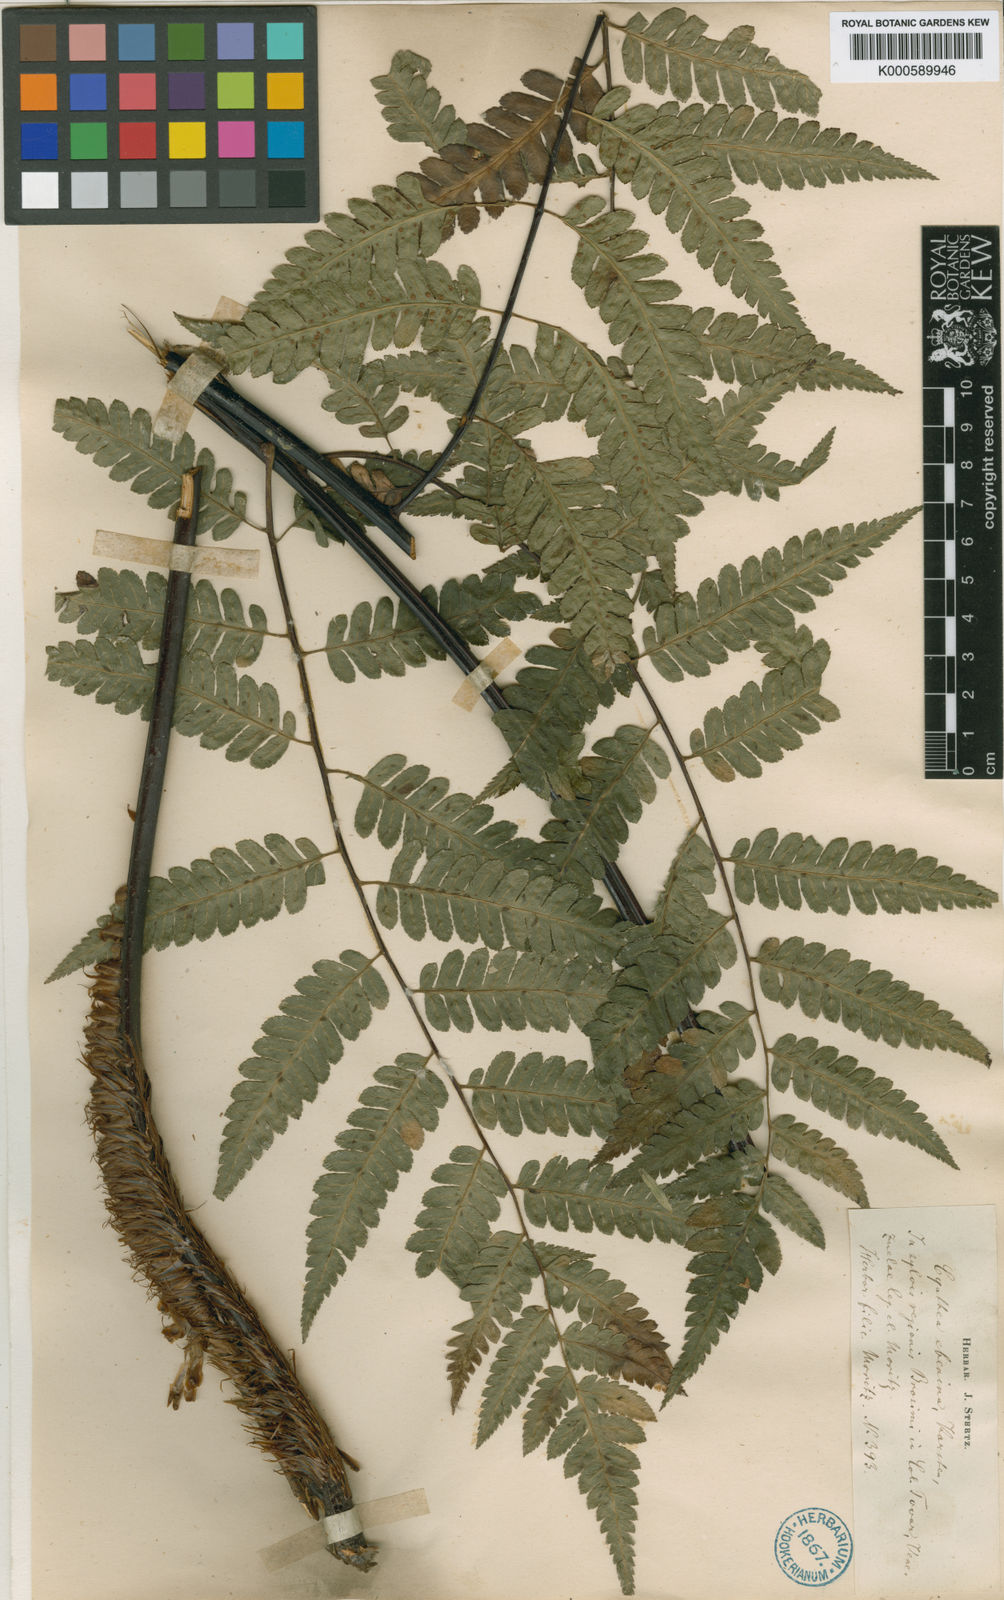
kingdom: Plantae
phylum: Tracheophyta
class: Polypodiopsida
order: Cyatheales
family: Cyatheaceae
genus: Cyathea
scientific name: Cyathea ebenina
